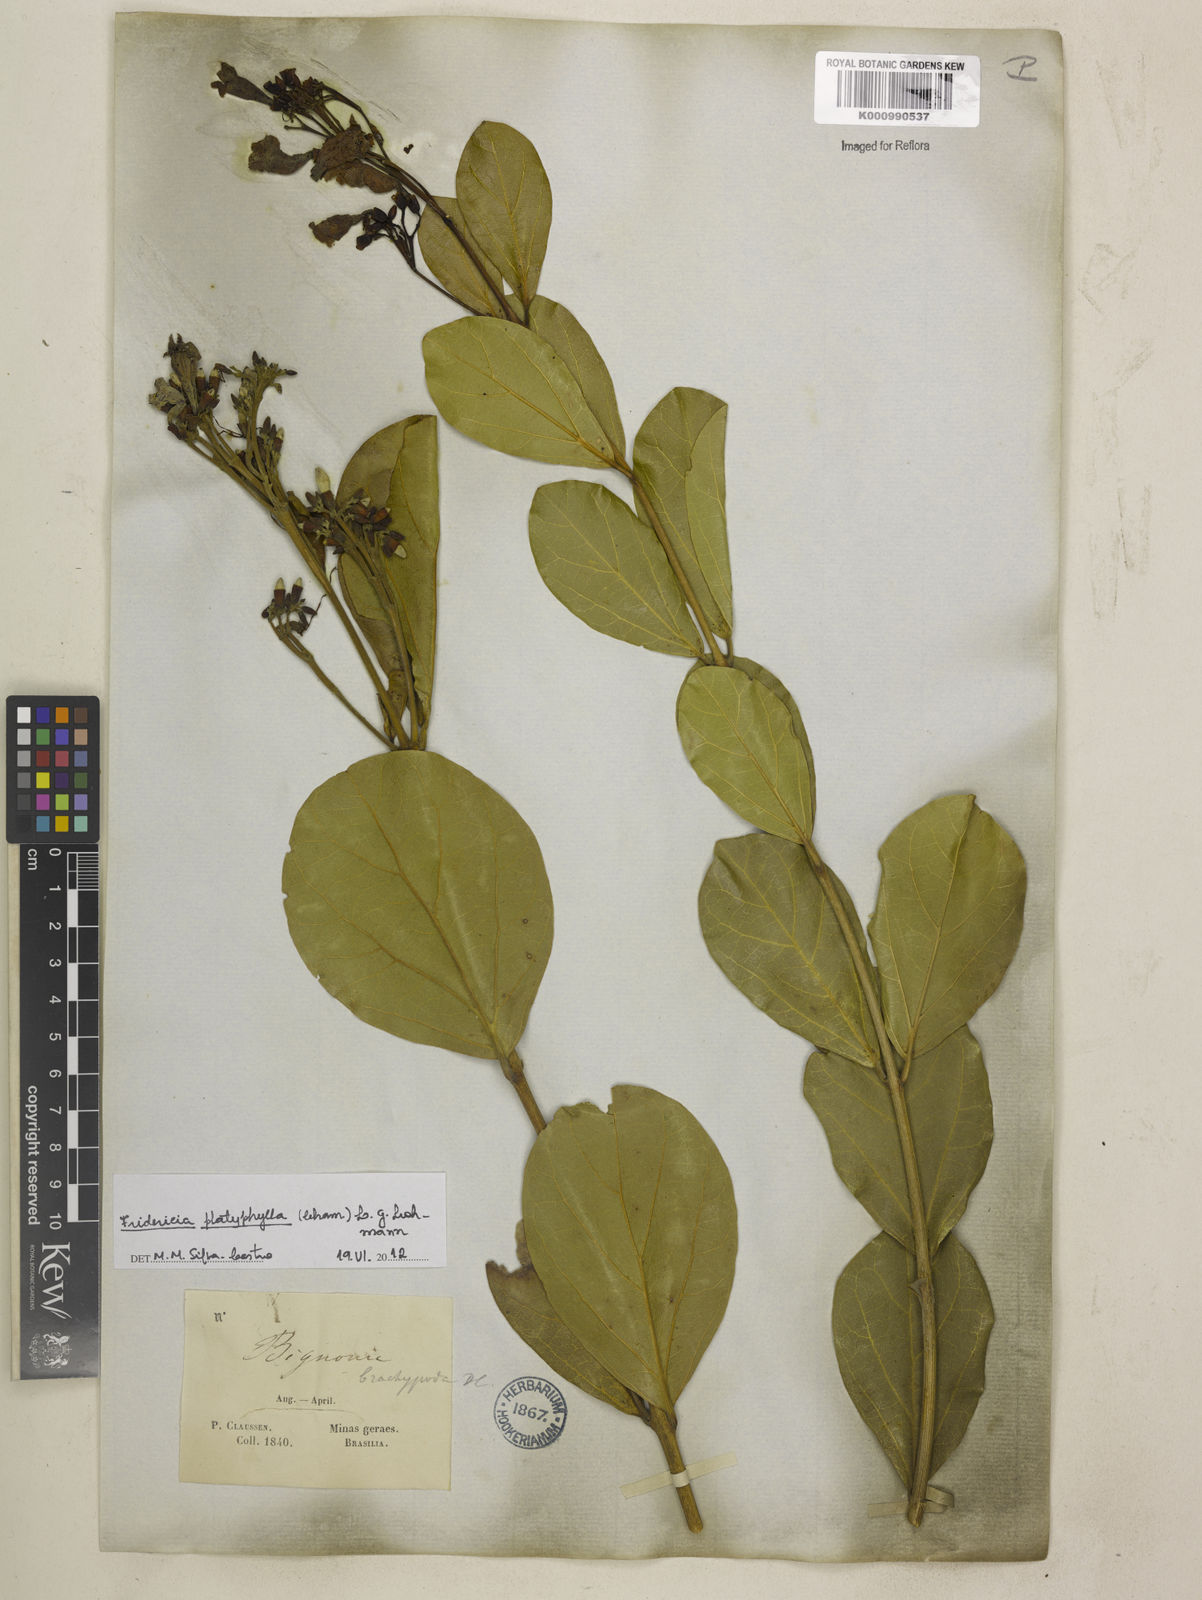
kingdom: Plantae
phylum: Tracheophyta
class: Magnoliopsida
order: Lamiales
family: Bignoniaceae
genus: Fridericia
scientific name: Fridericia platyphylla
